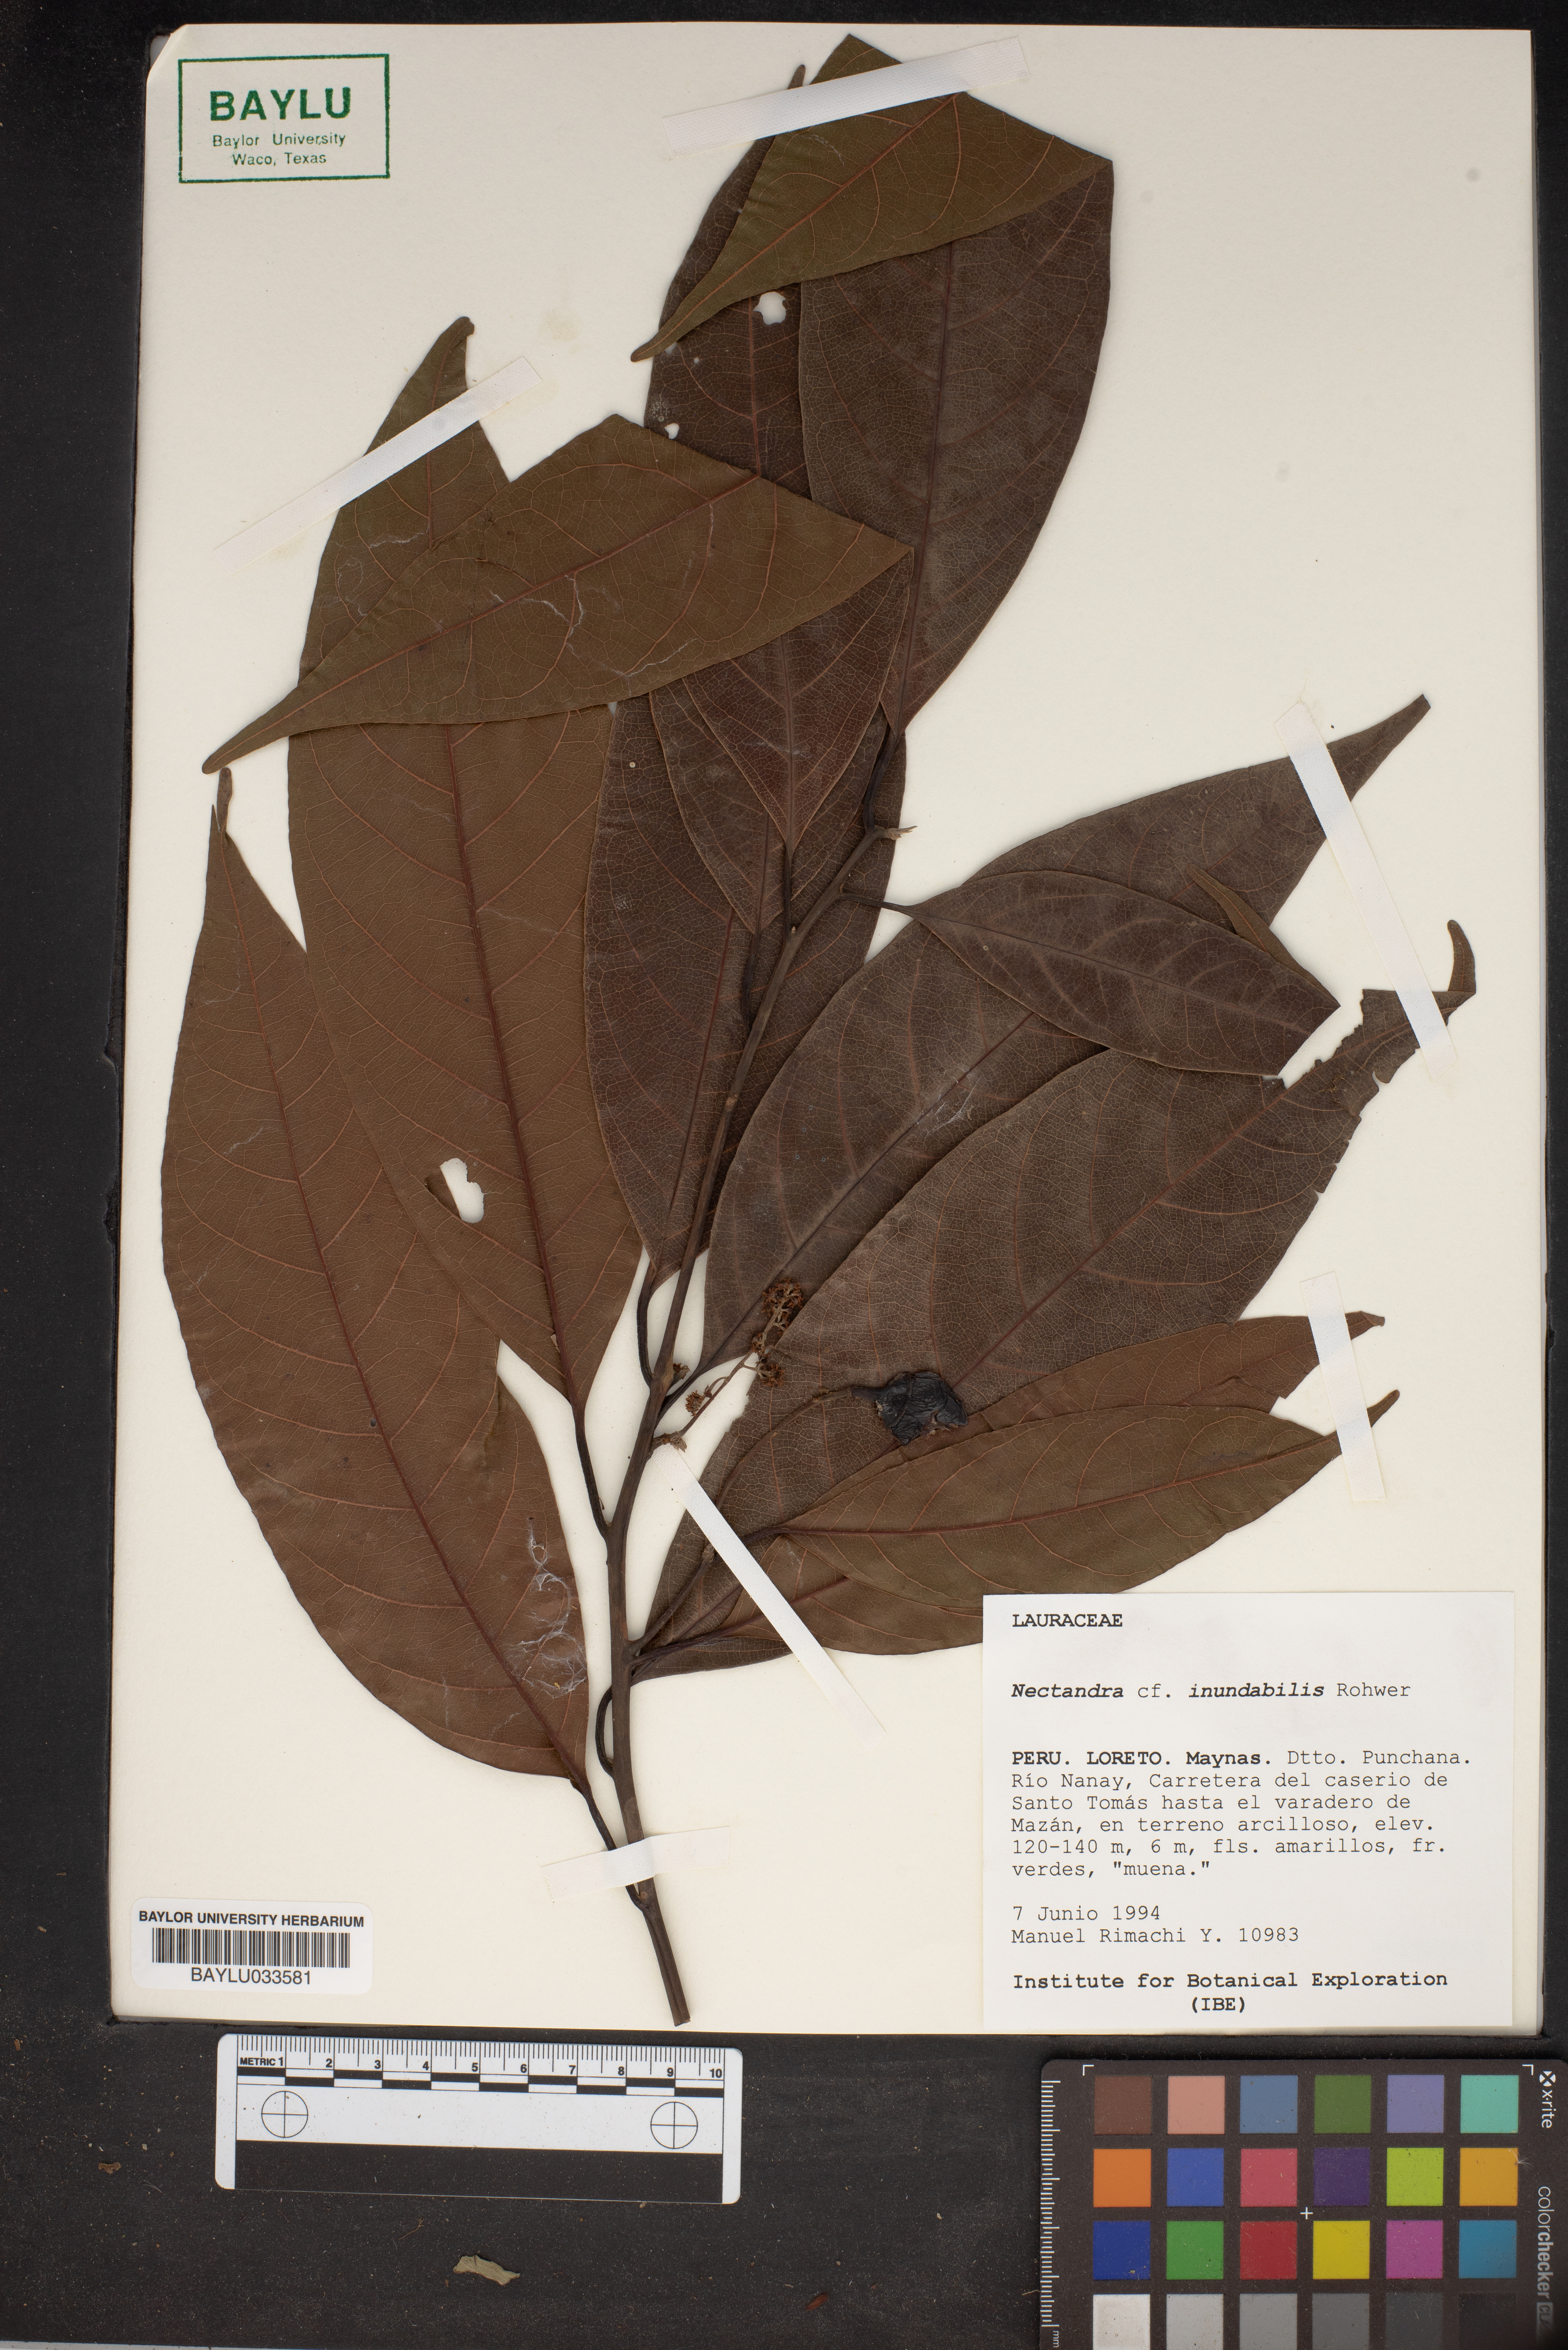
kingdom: Plantae
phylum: Tracheophyta
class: Magnoliopsida
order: Laurales
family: Lauraceae
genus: Nectandra
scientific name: Nectandra inundabilis
